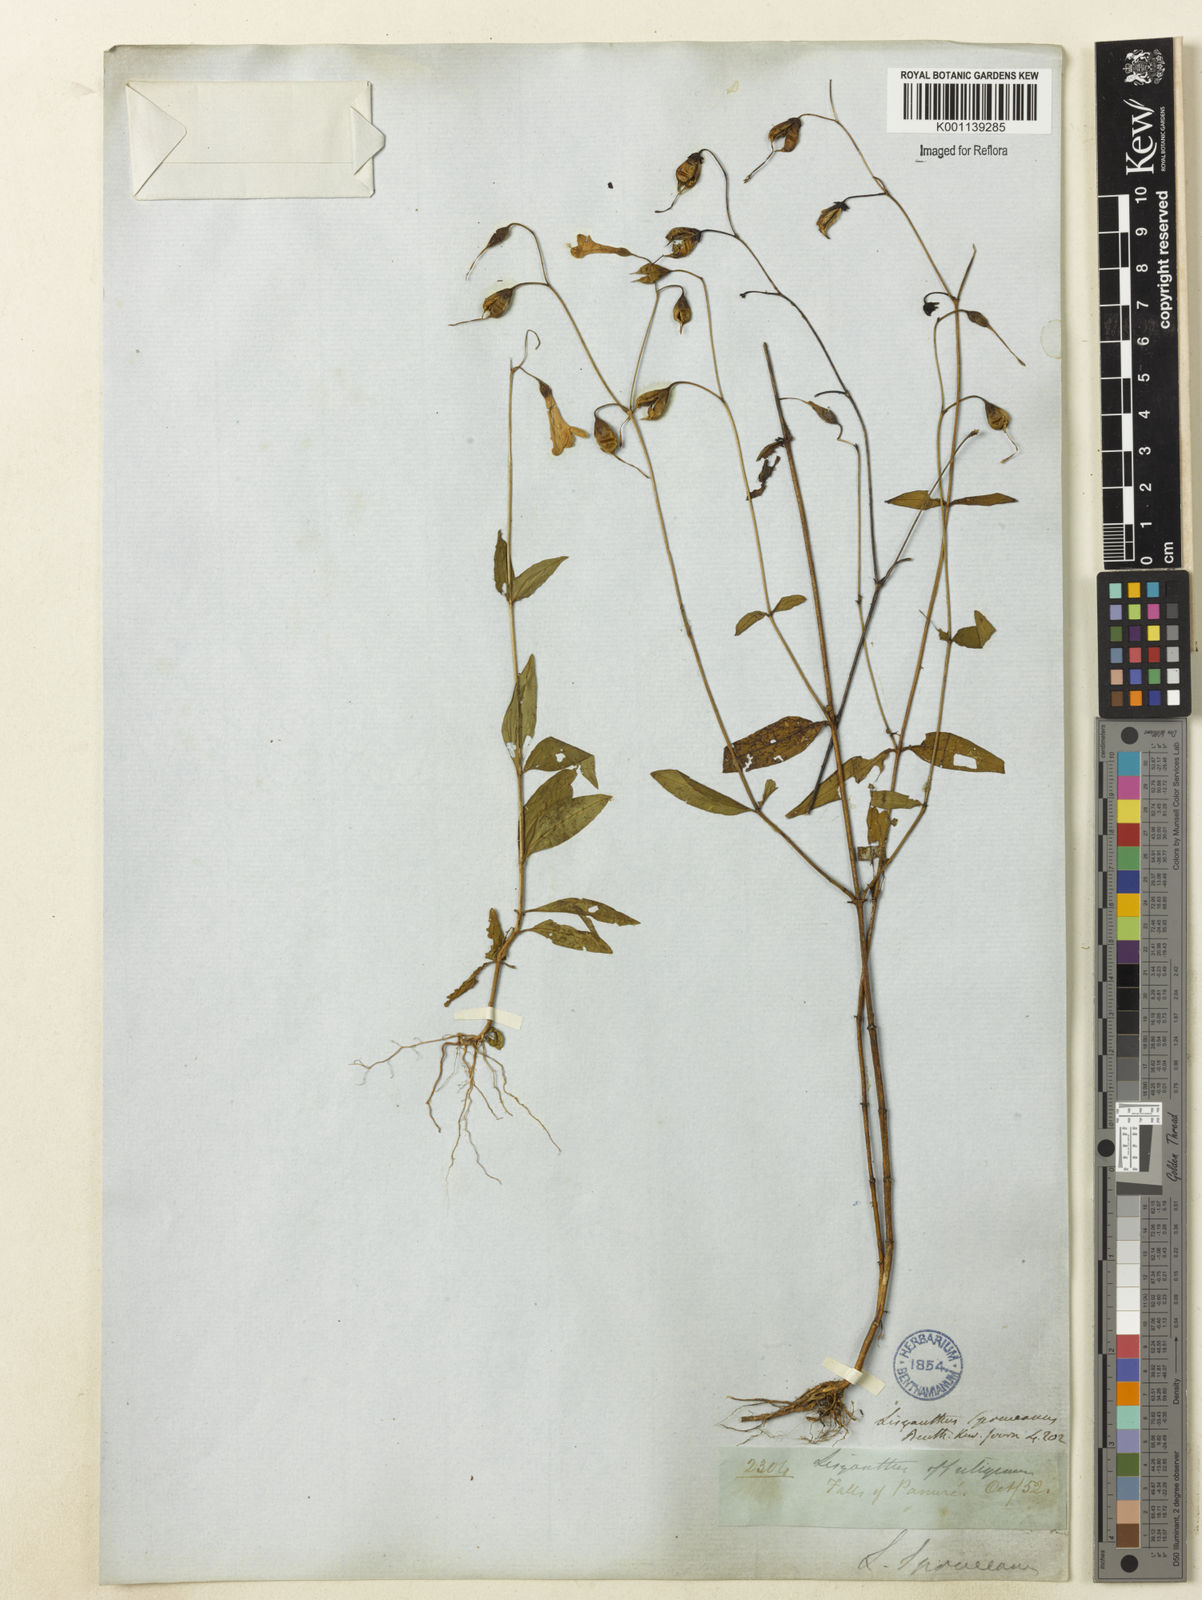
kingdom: Plantae
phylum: Tracheophyta
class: Magnoliopsida
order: Gentianales
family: Gentianaceae
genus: Chelonanthus
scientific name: Chelonanthus purpurascens
